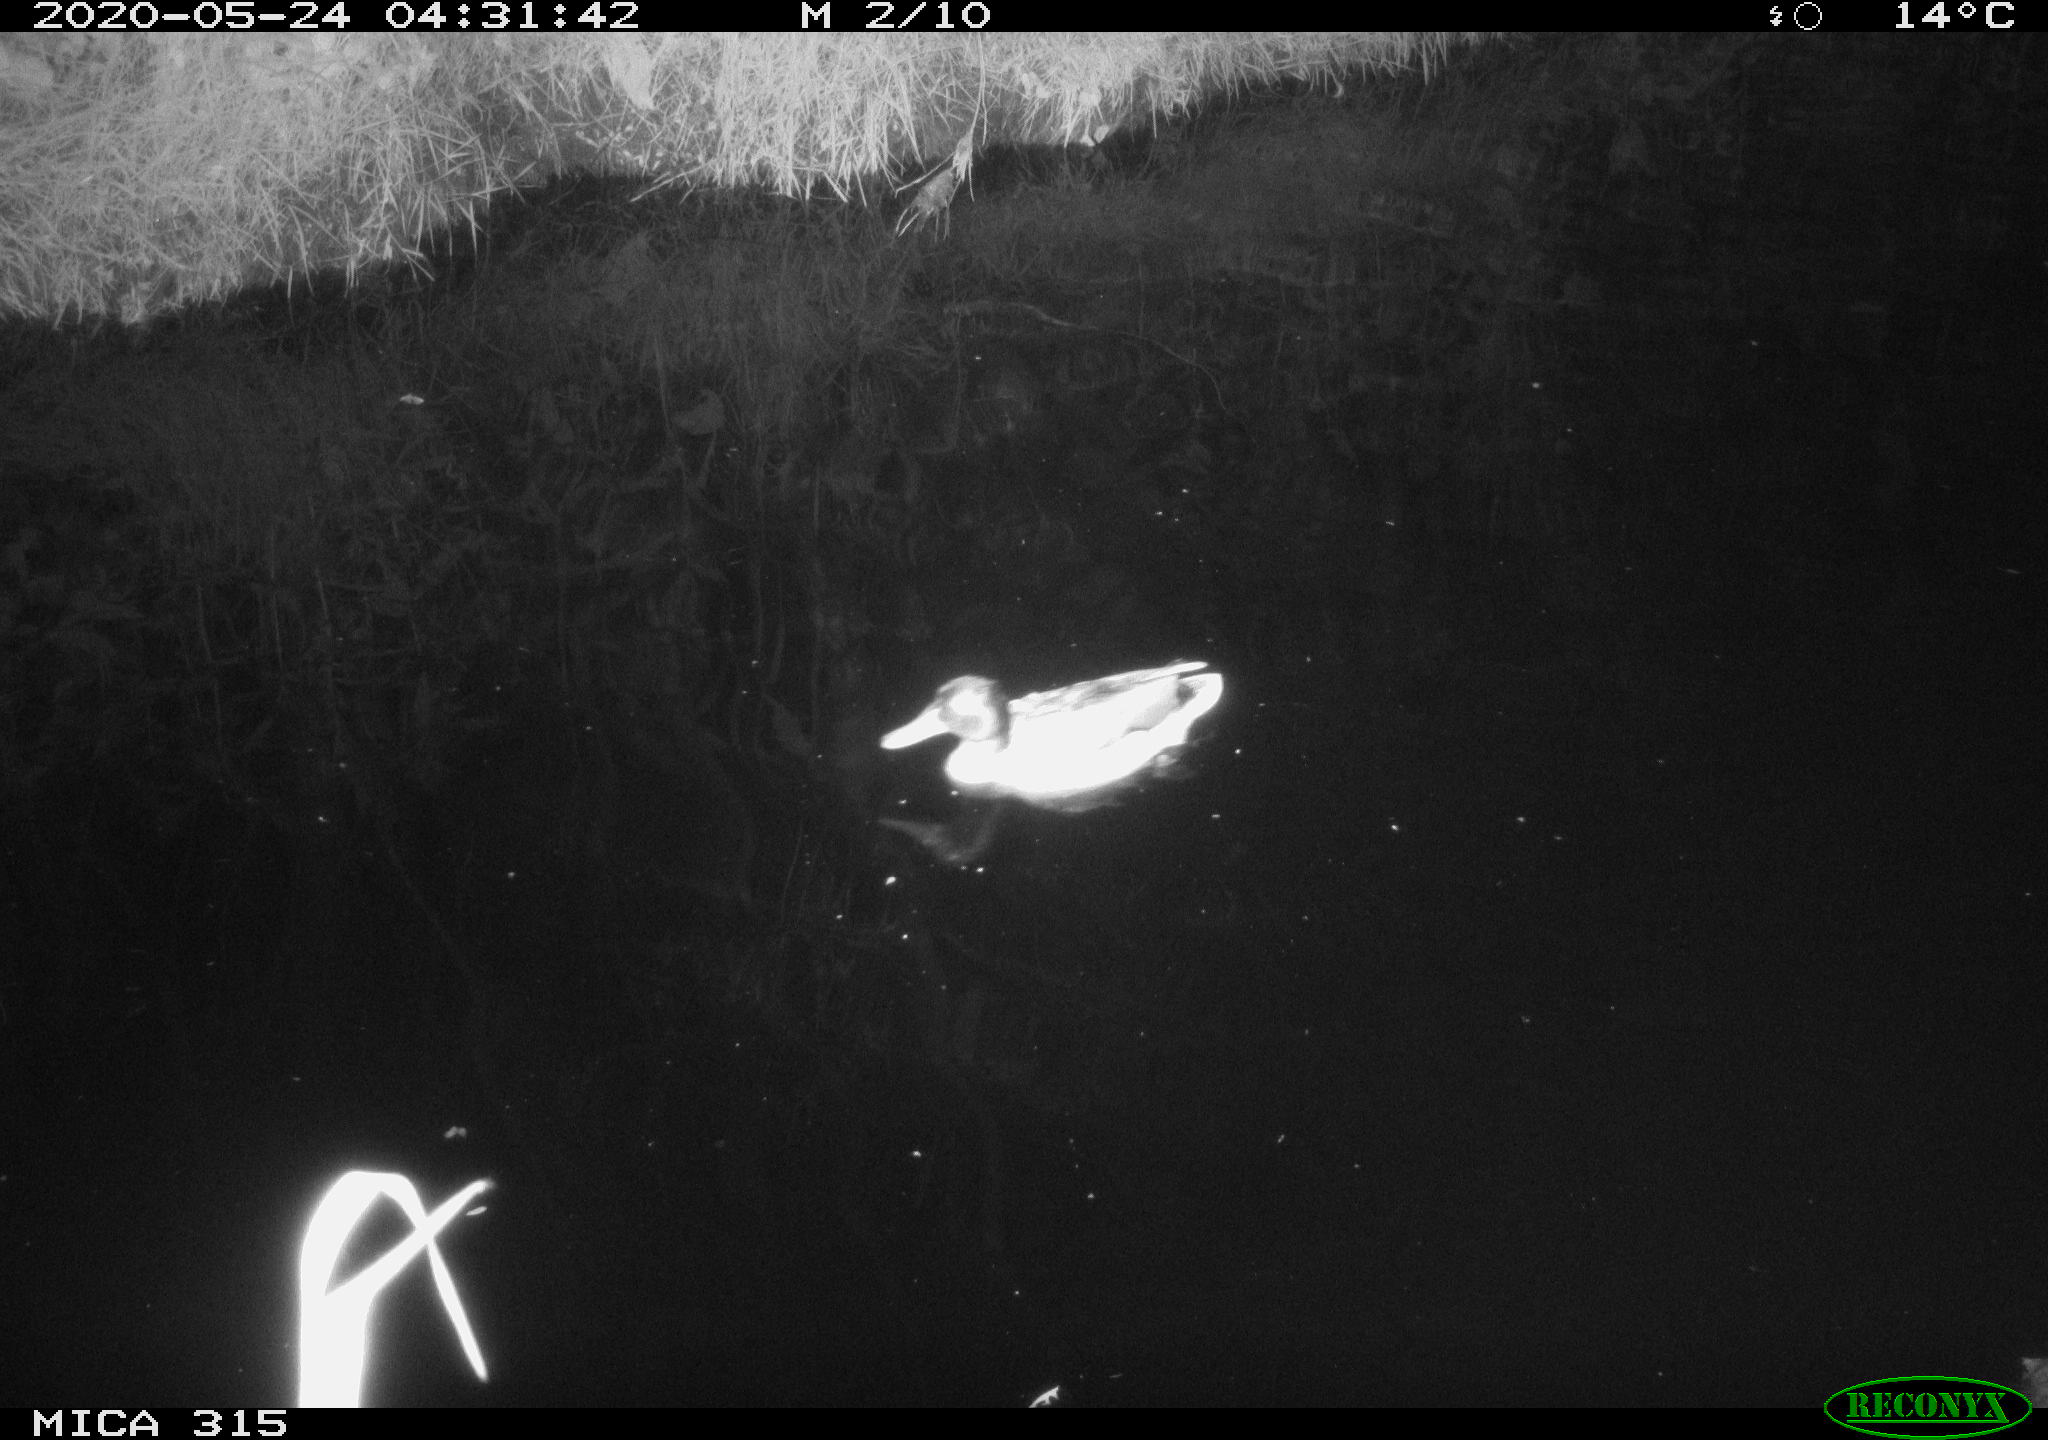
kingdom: Animalia
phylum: Chordata
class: Aves
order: Anseriformes
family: Anatidae
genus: Anas
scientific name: Anas platyrhynchos
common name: Mallard
